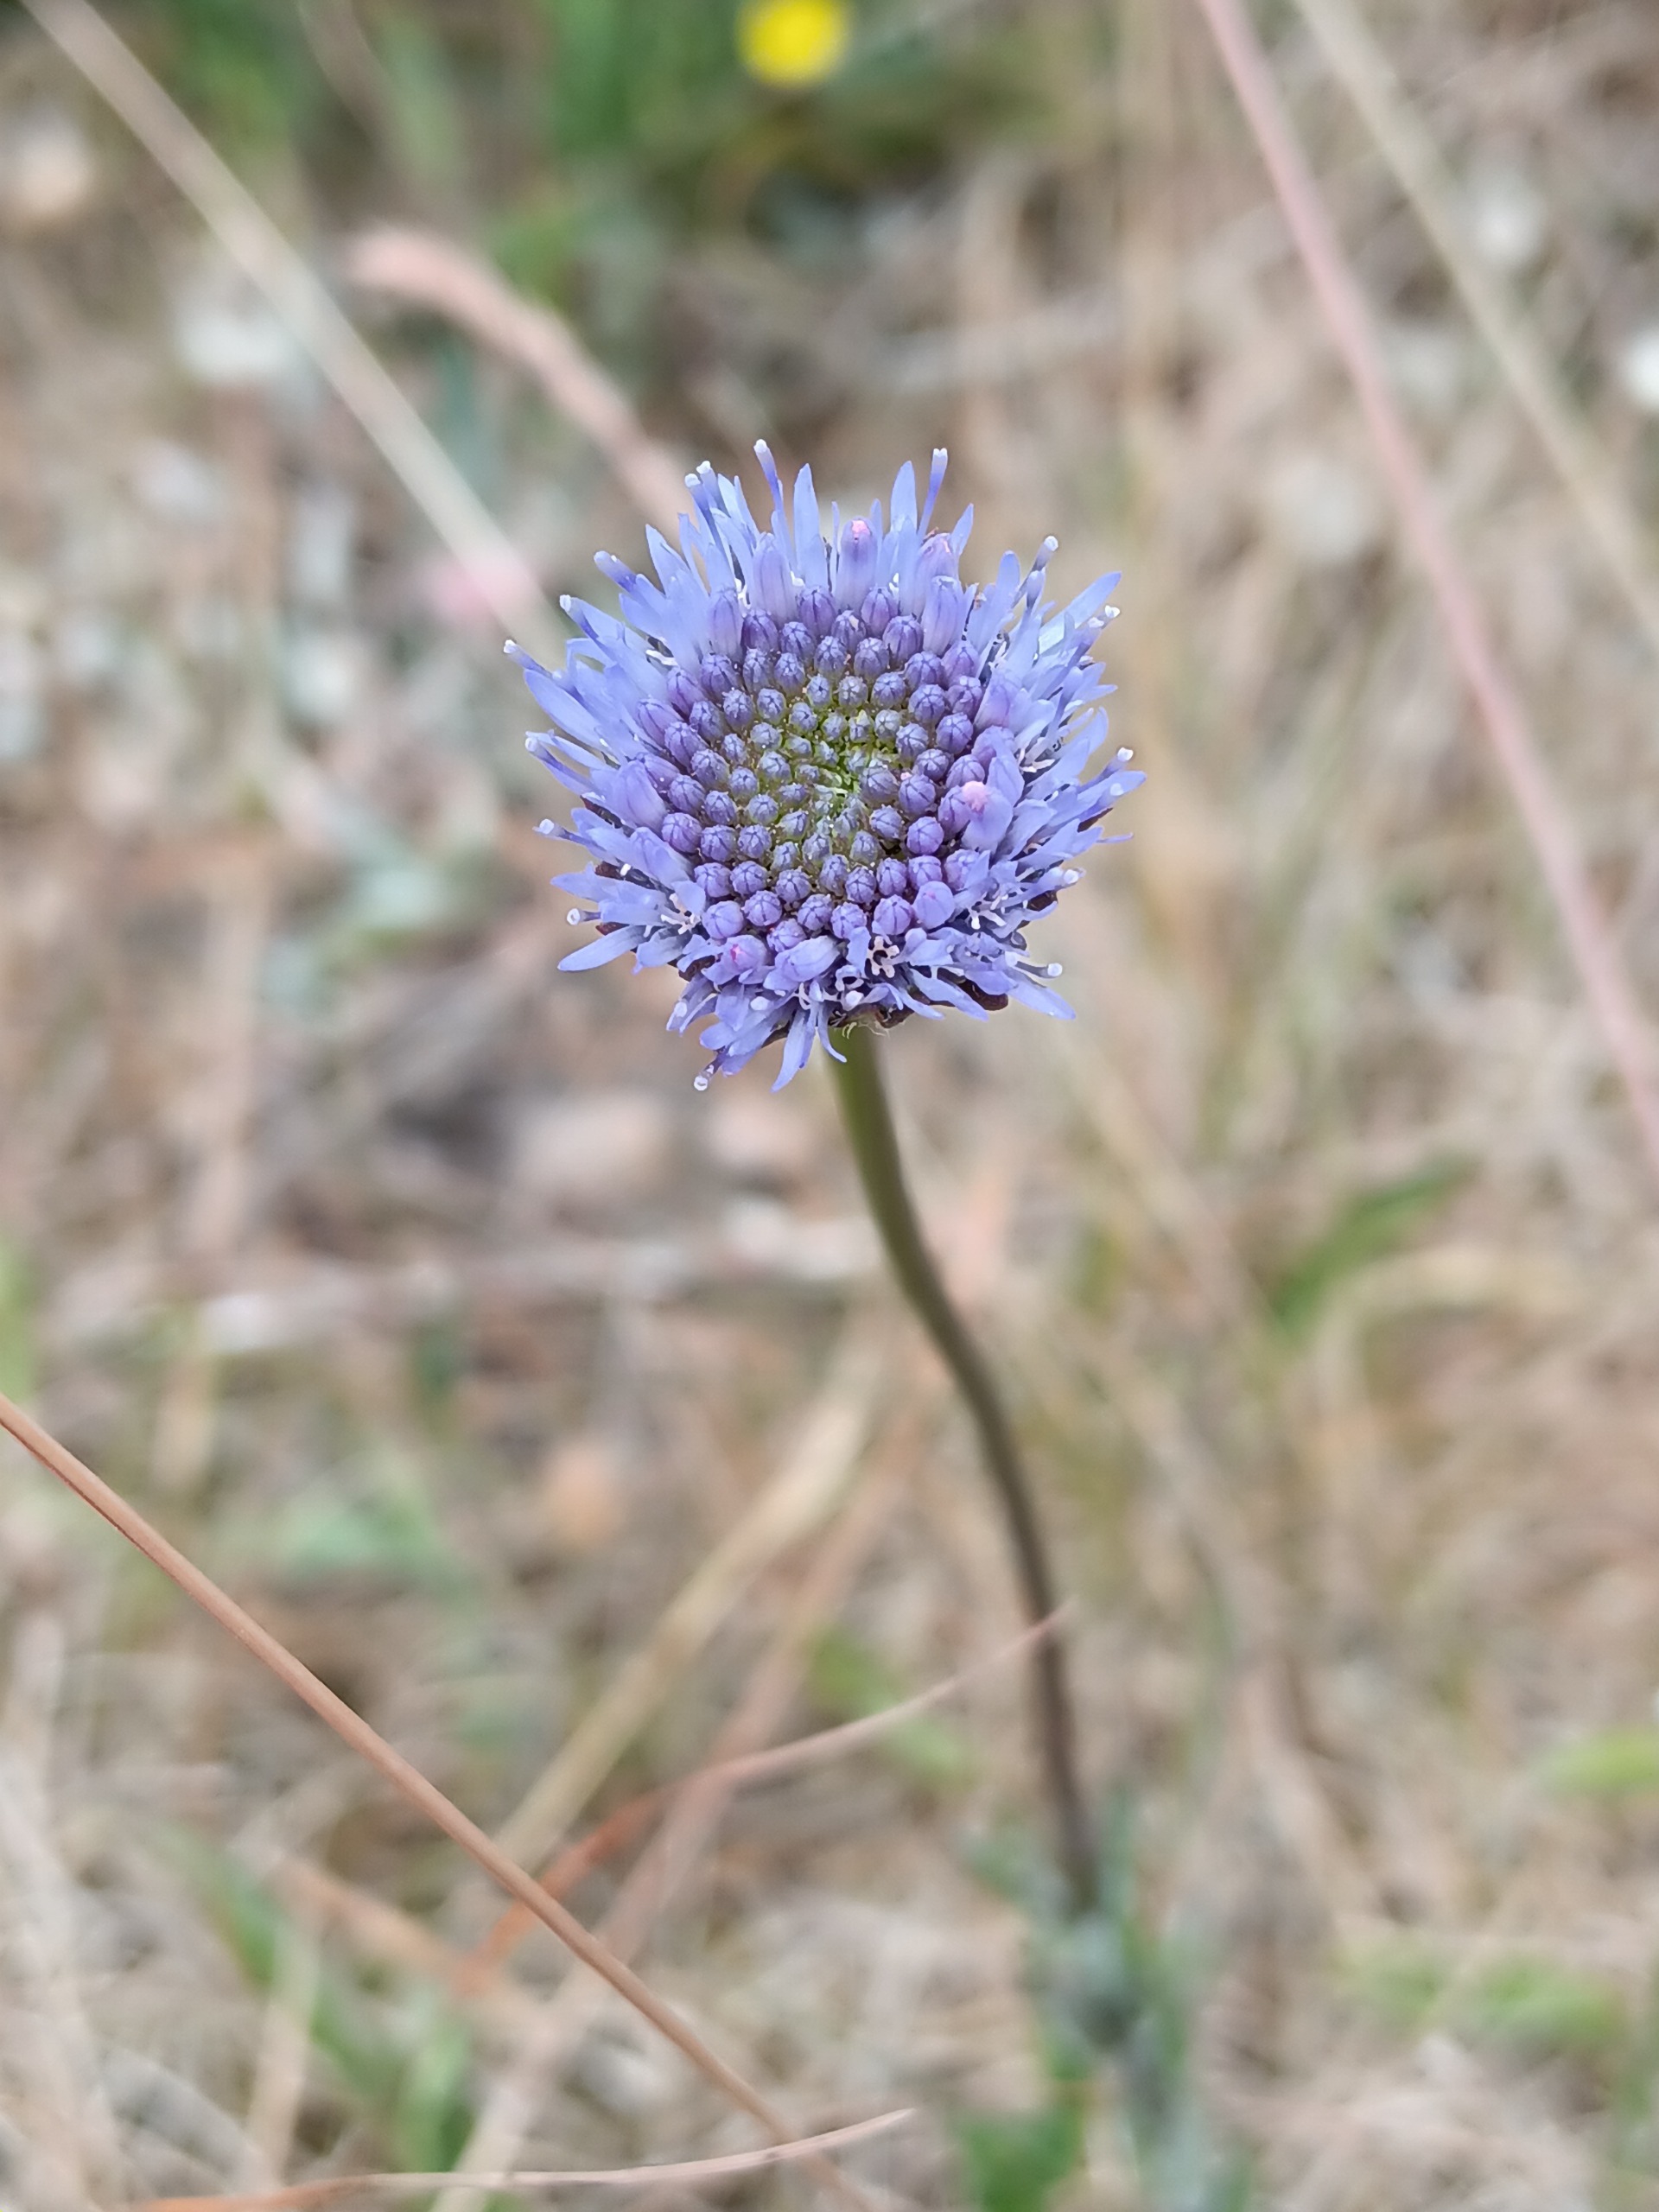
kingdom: Plantae
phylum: Tracheophyta
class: Magnoliopsida
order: Asterales
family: Campanulaceae
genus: Jasione
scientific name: Jasione montana
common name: Blåmunke
